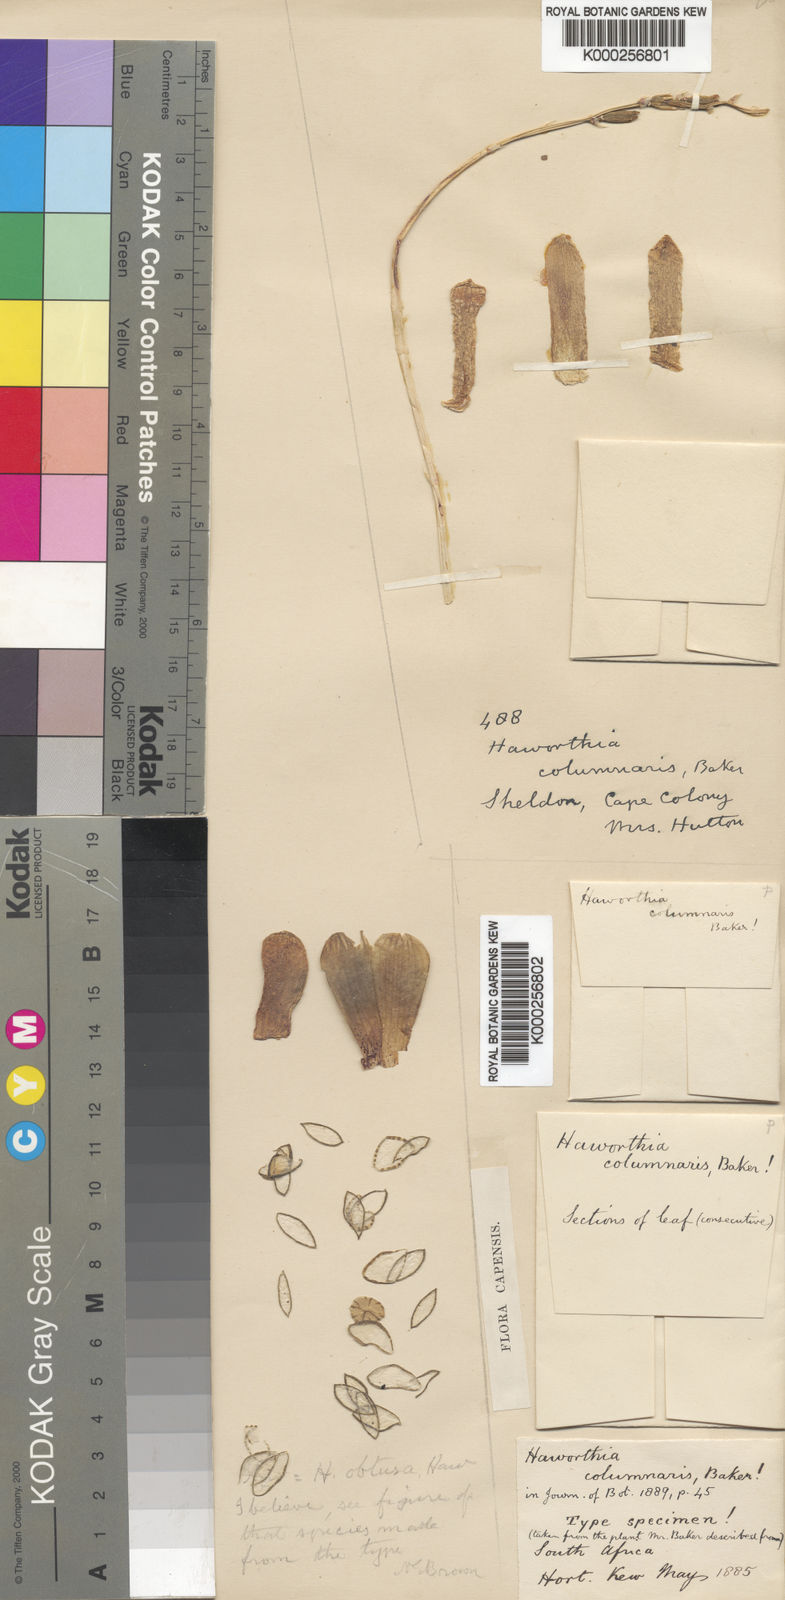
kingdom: Plantae
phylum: Tracheophyta
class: Liliopsida
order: Asparagales
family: Asphodelaceae
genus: Haworthia
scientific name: Haworthia columnaris
